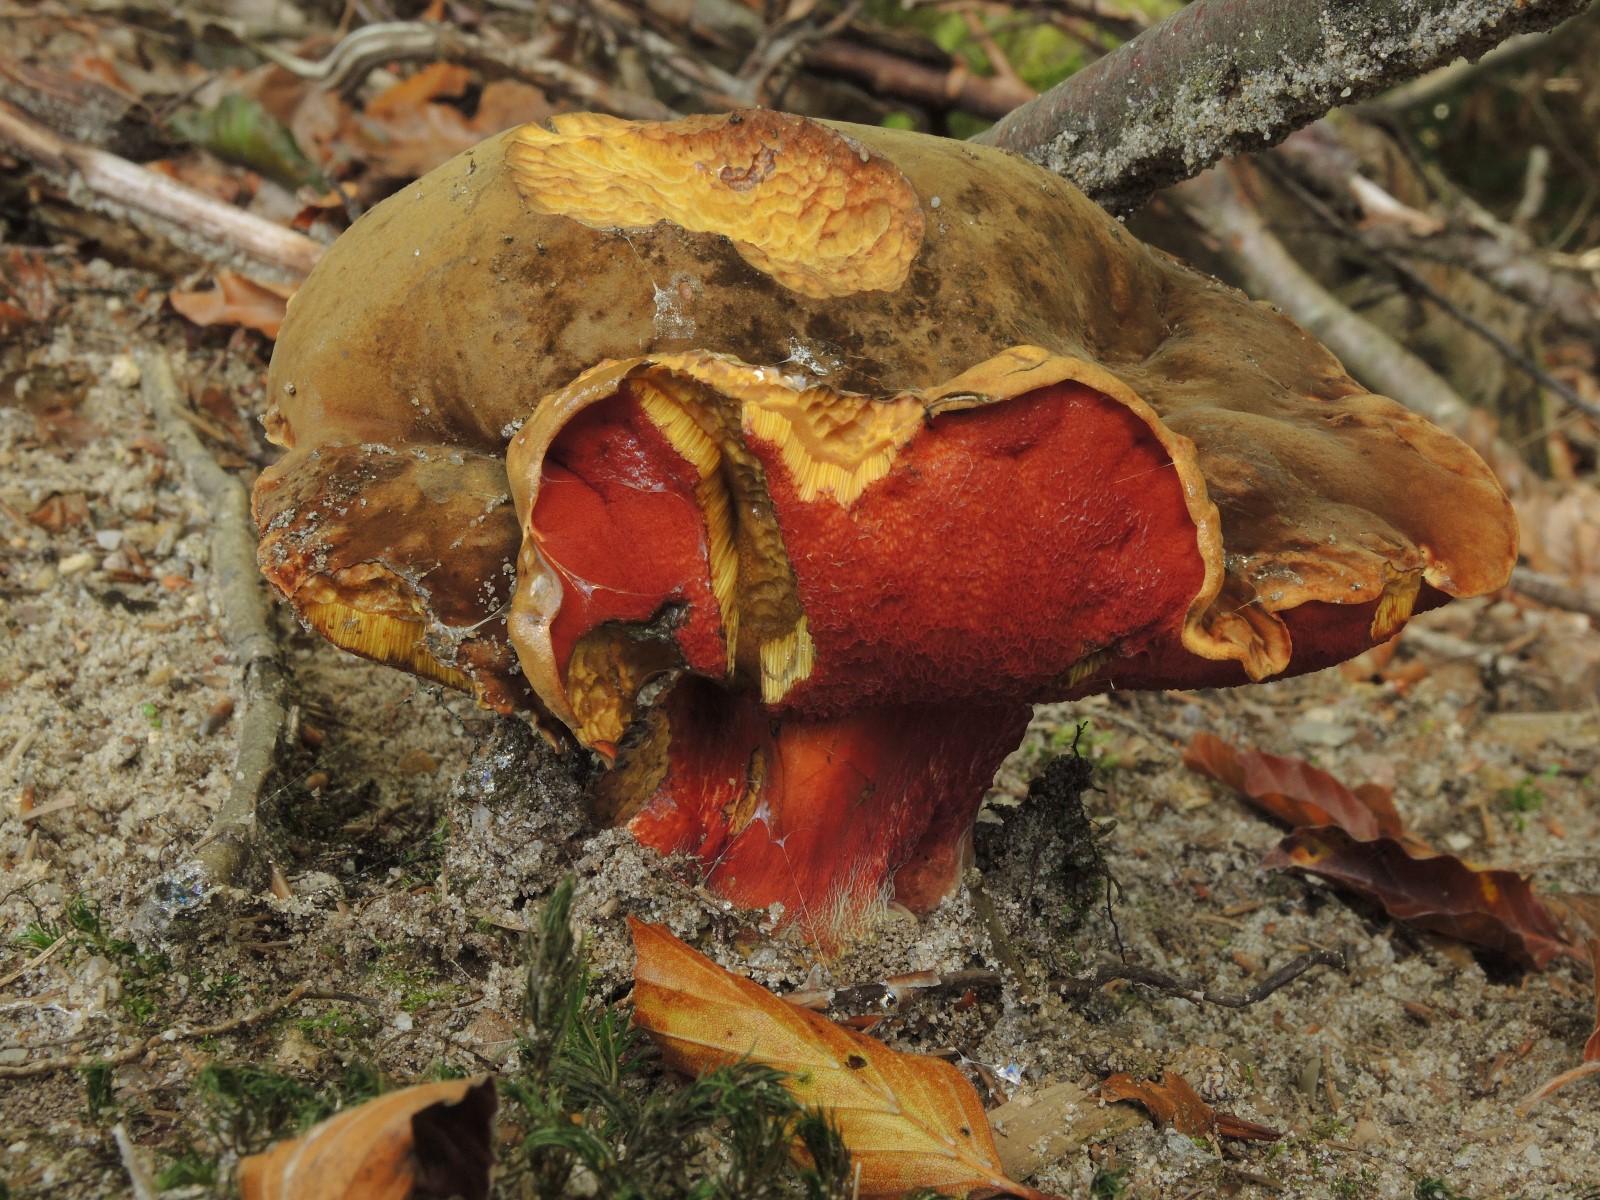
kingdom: Fungi
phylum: Basidiomycota
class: Agaricomycetes
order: Boletales
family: Boletaceae
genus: Neoboletus
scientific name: Neoboletus erythropus
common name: punktstokket indigorørhat
